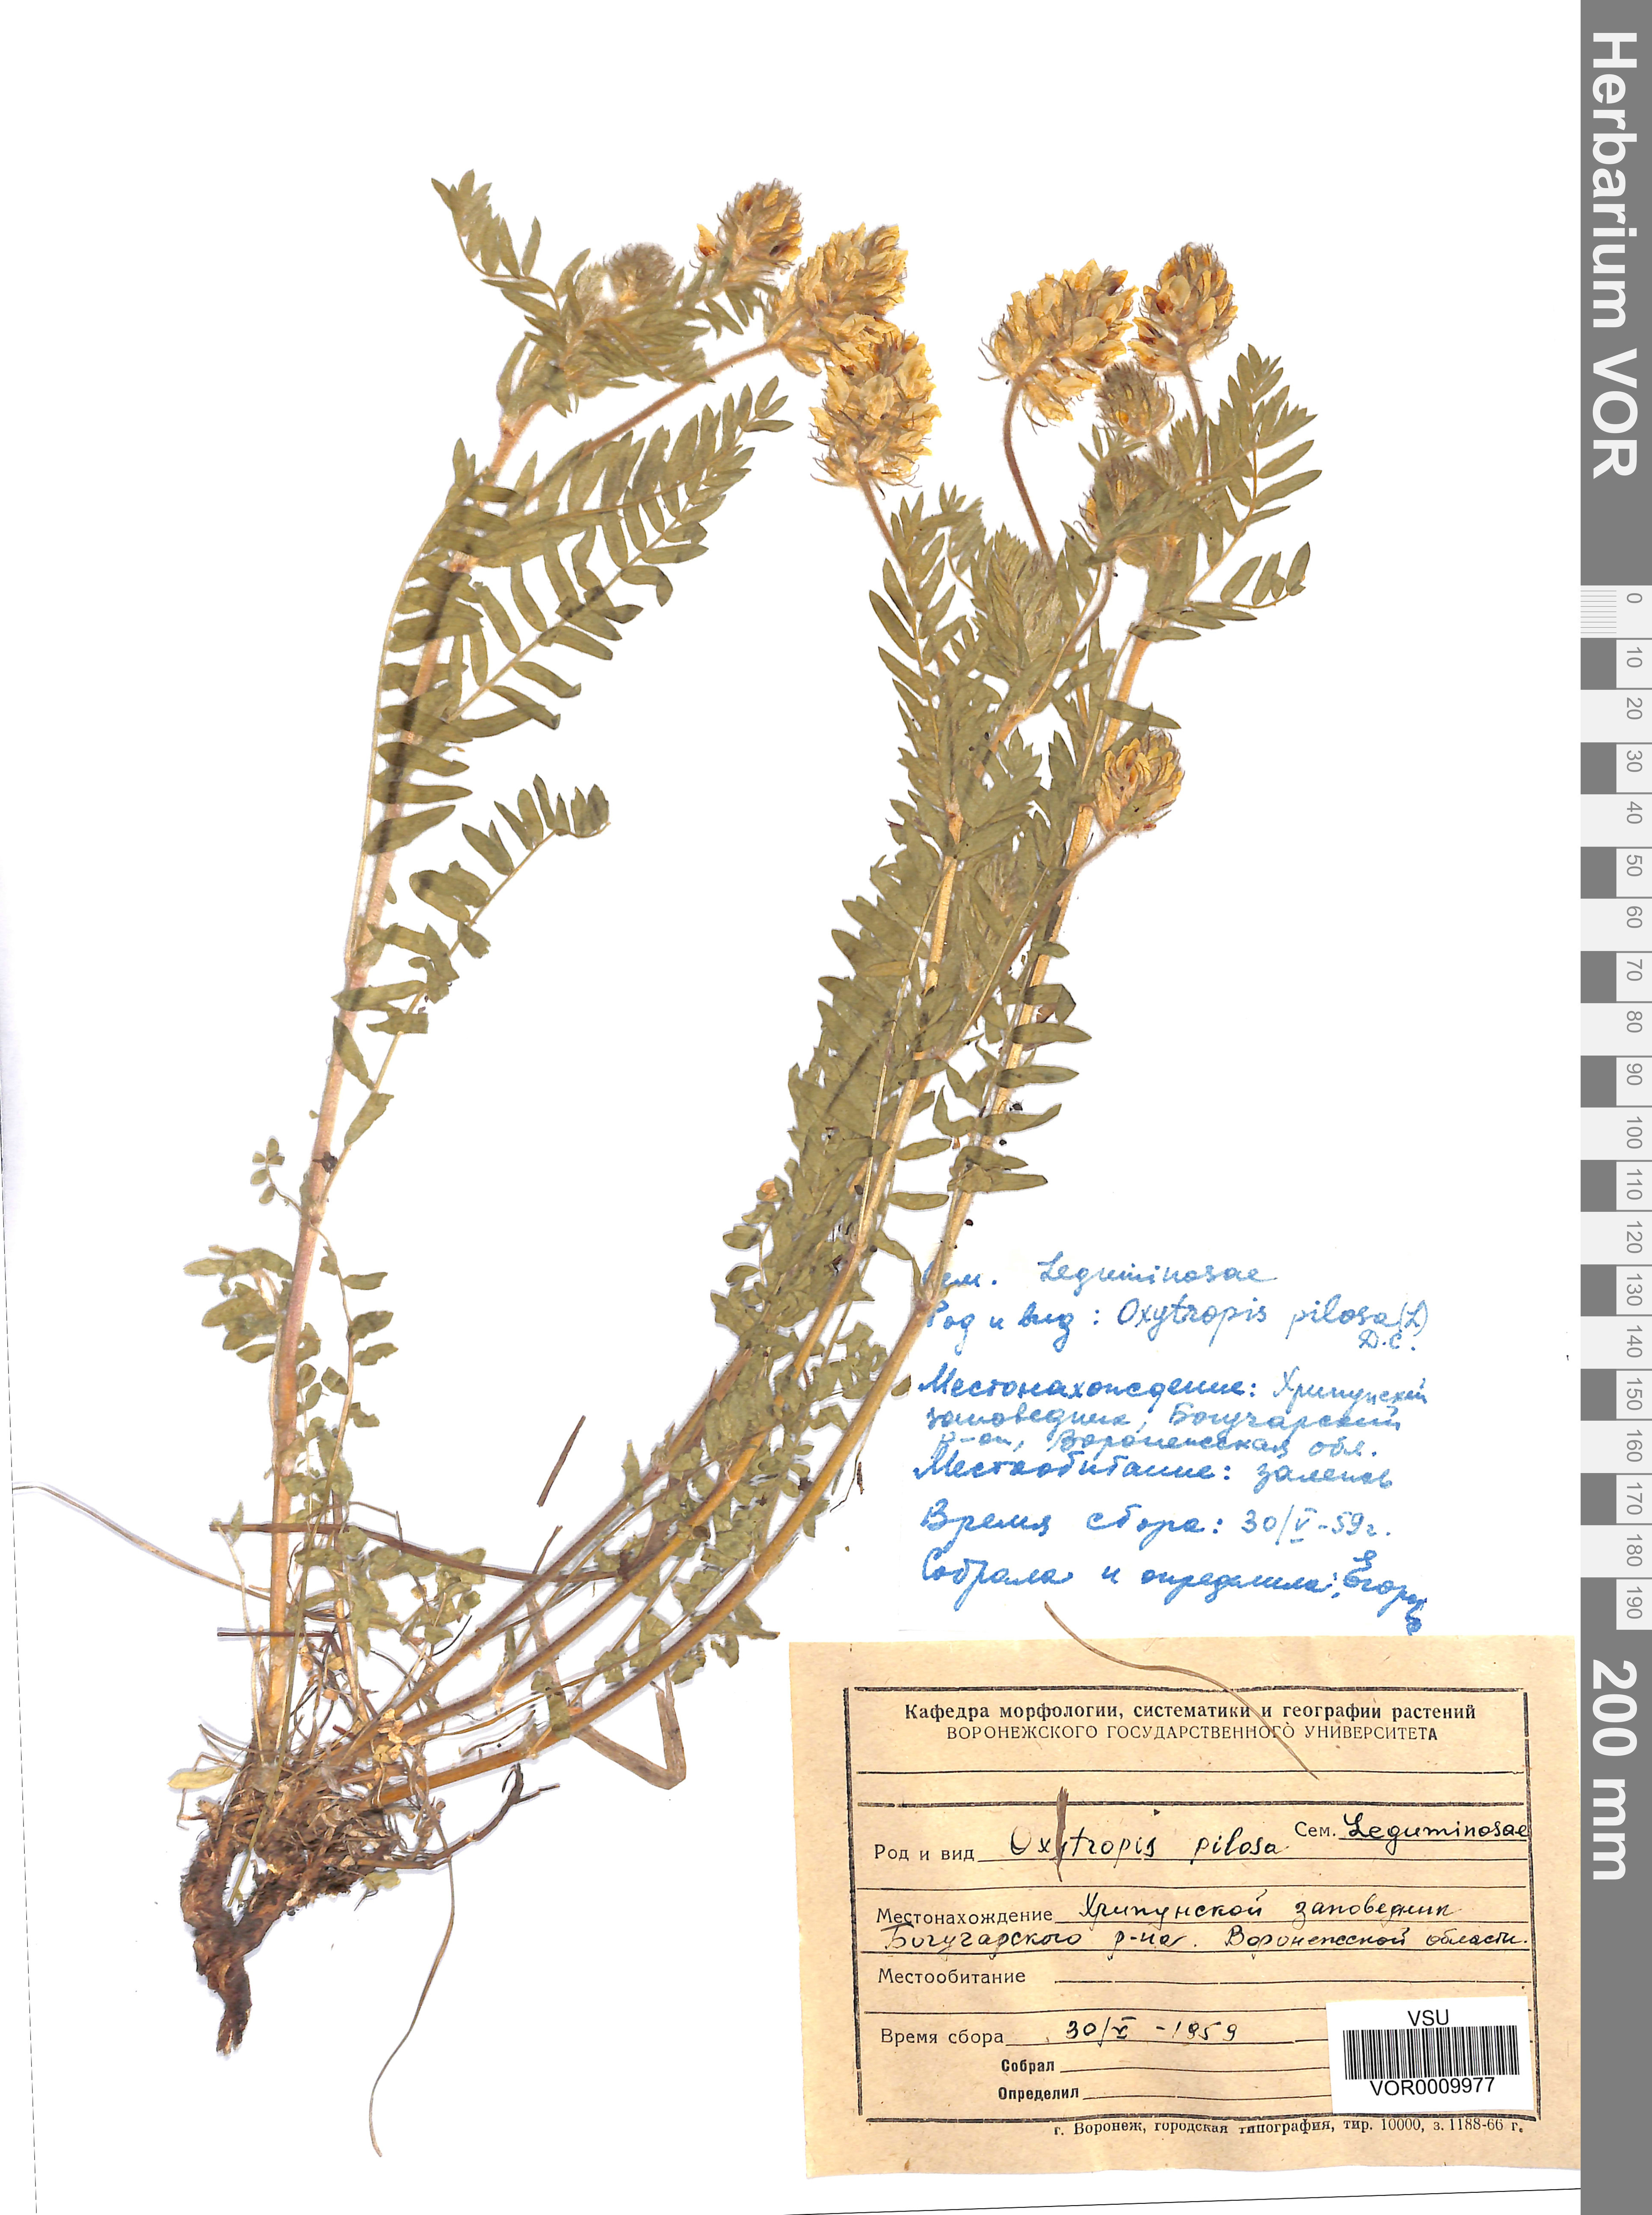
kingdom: Plantae
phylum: Tracheophyta
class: Magnoliopsida
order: Fabales
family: Fabaceae
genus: Oxytropis
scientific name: Oxytropis pilosa
